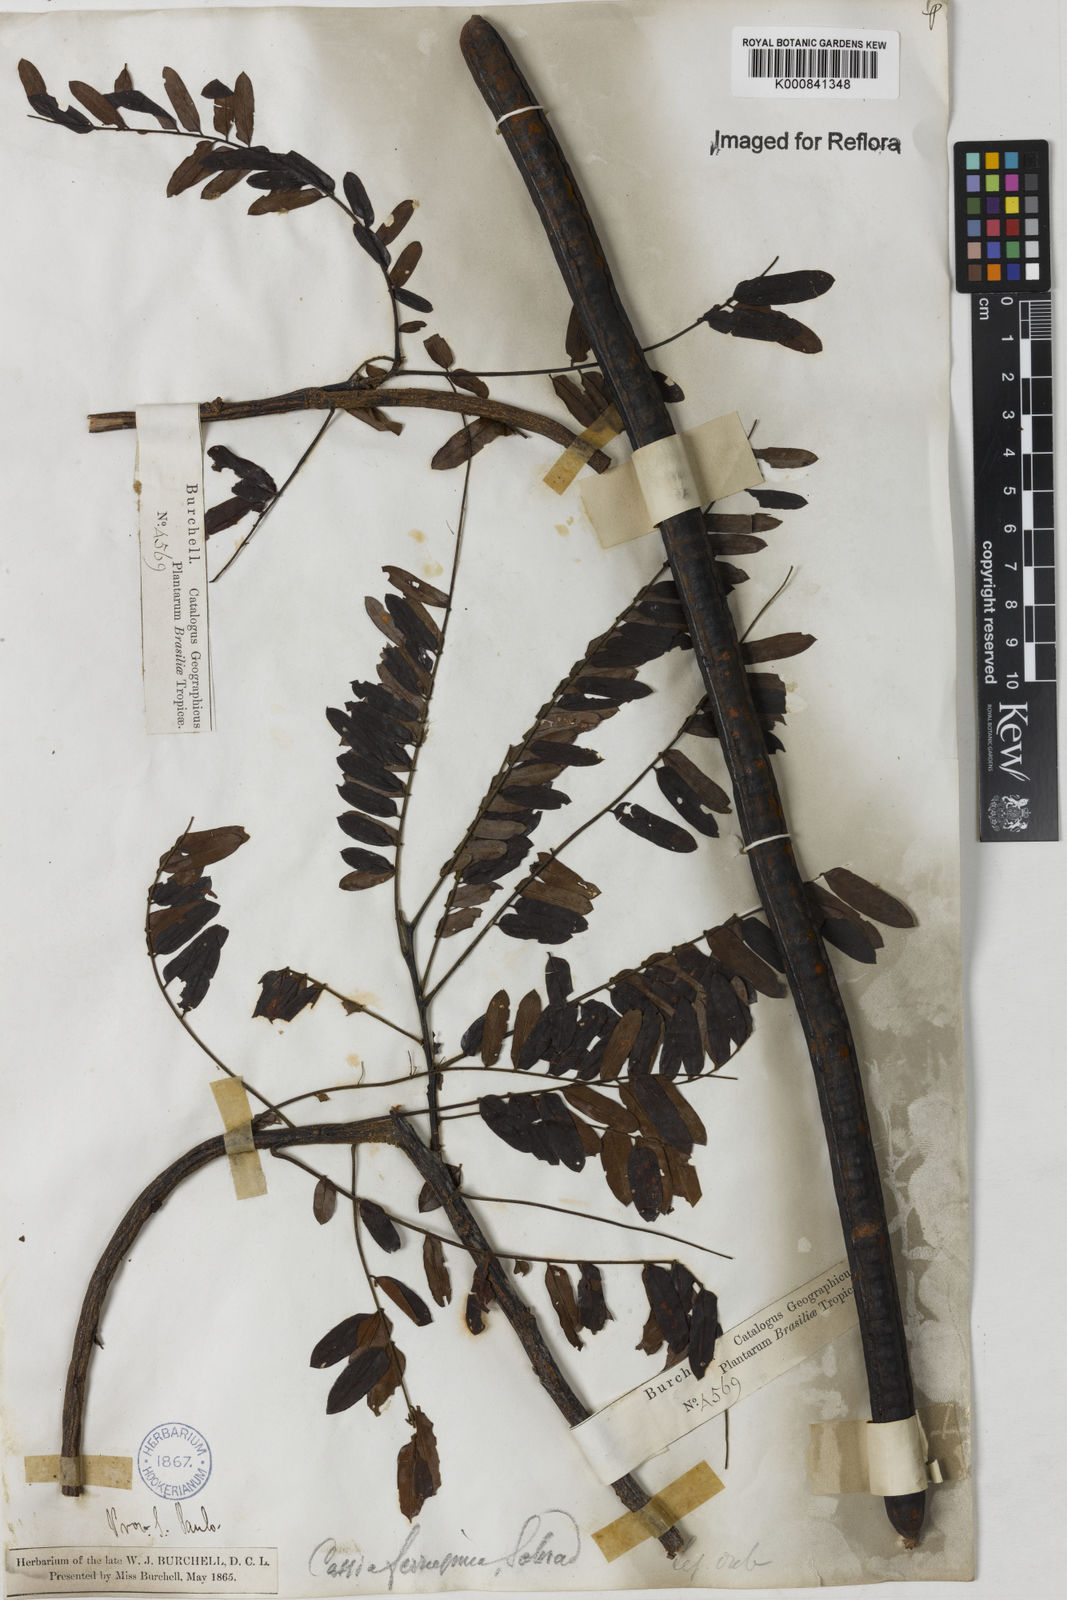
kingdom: Plantae
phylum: Tracheophyta
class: Magnoliopsida
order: Fabales
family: Fabaceae
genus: Cassia
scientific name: Cassia ferruginea
